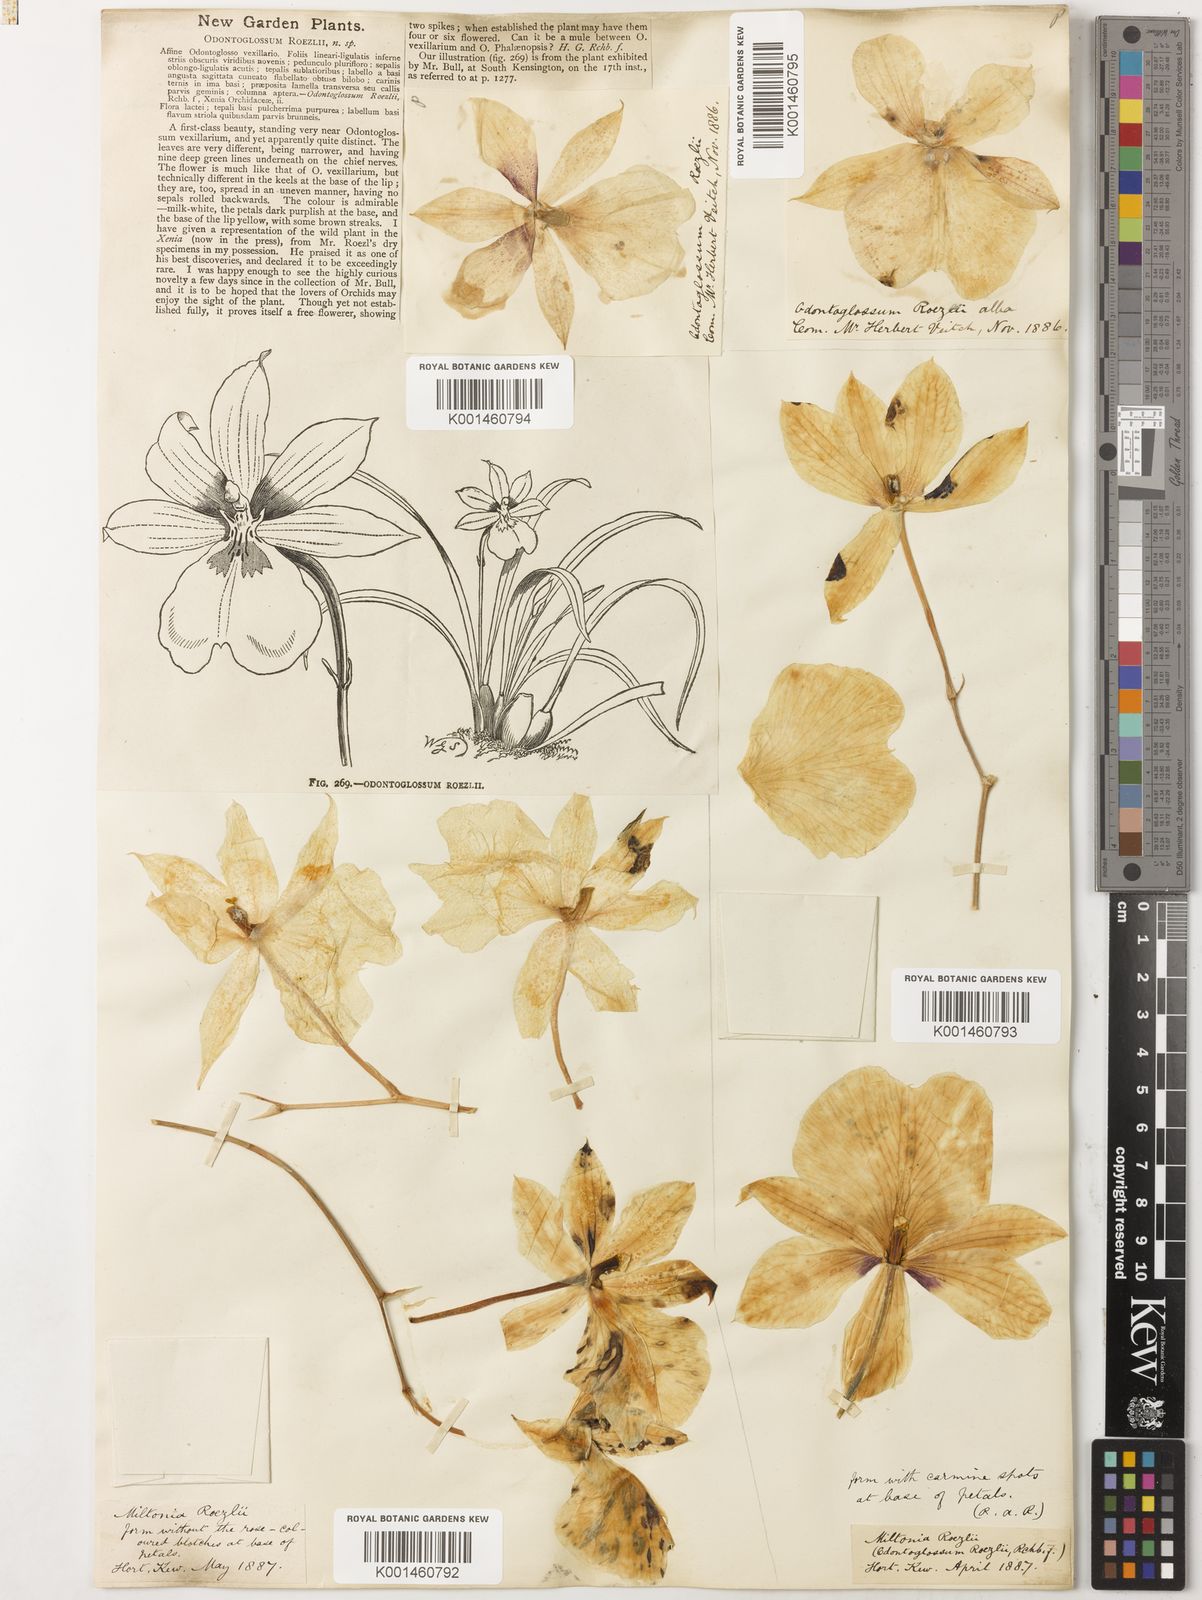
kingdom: Plantae
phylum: Tracheophyta
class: Liliopsida
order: Asparagales
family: Orchidaceae
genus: Miltoniopsis
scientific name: Miltoniopsis roezlii
